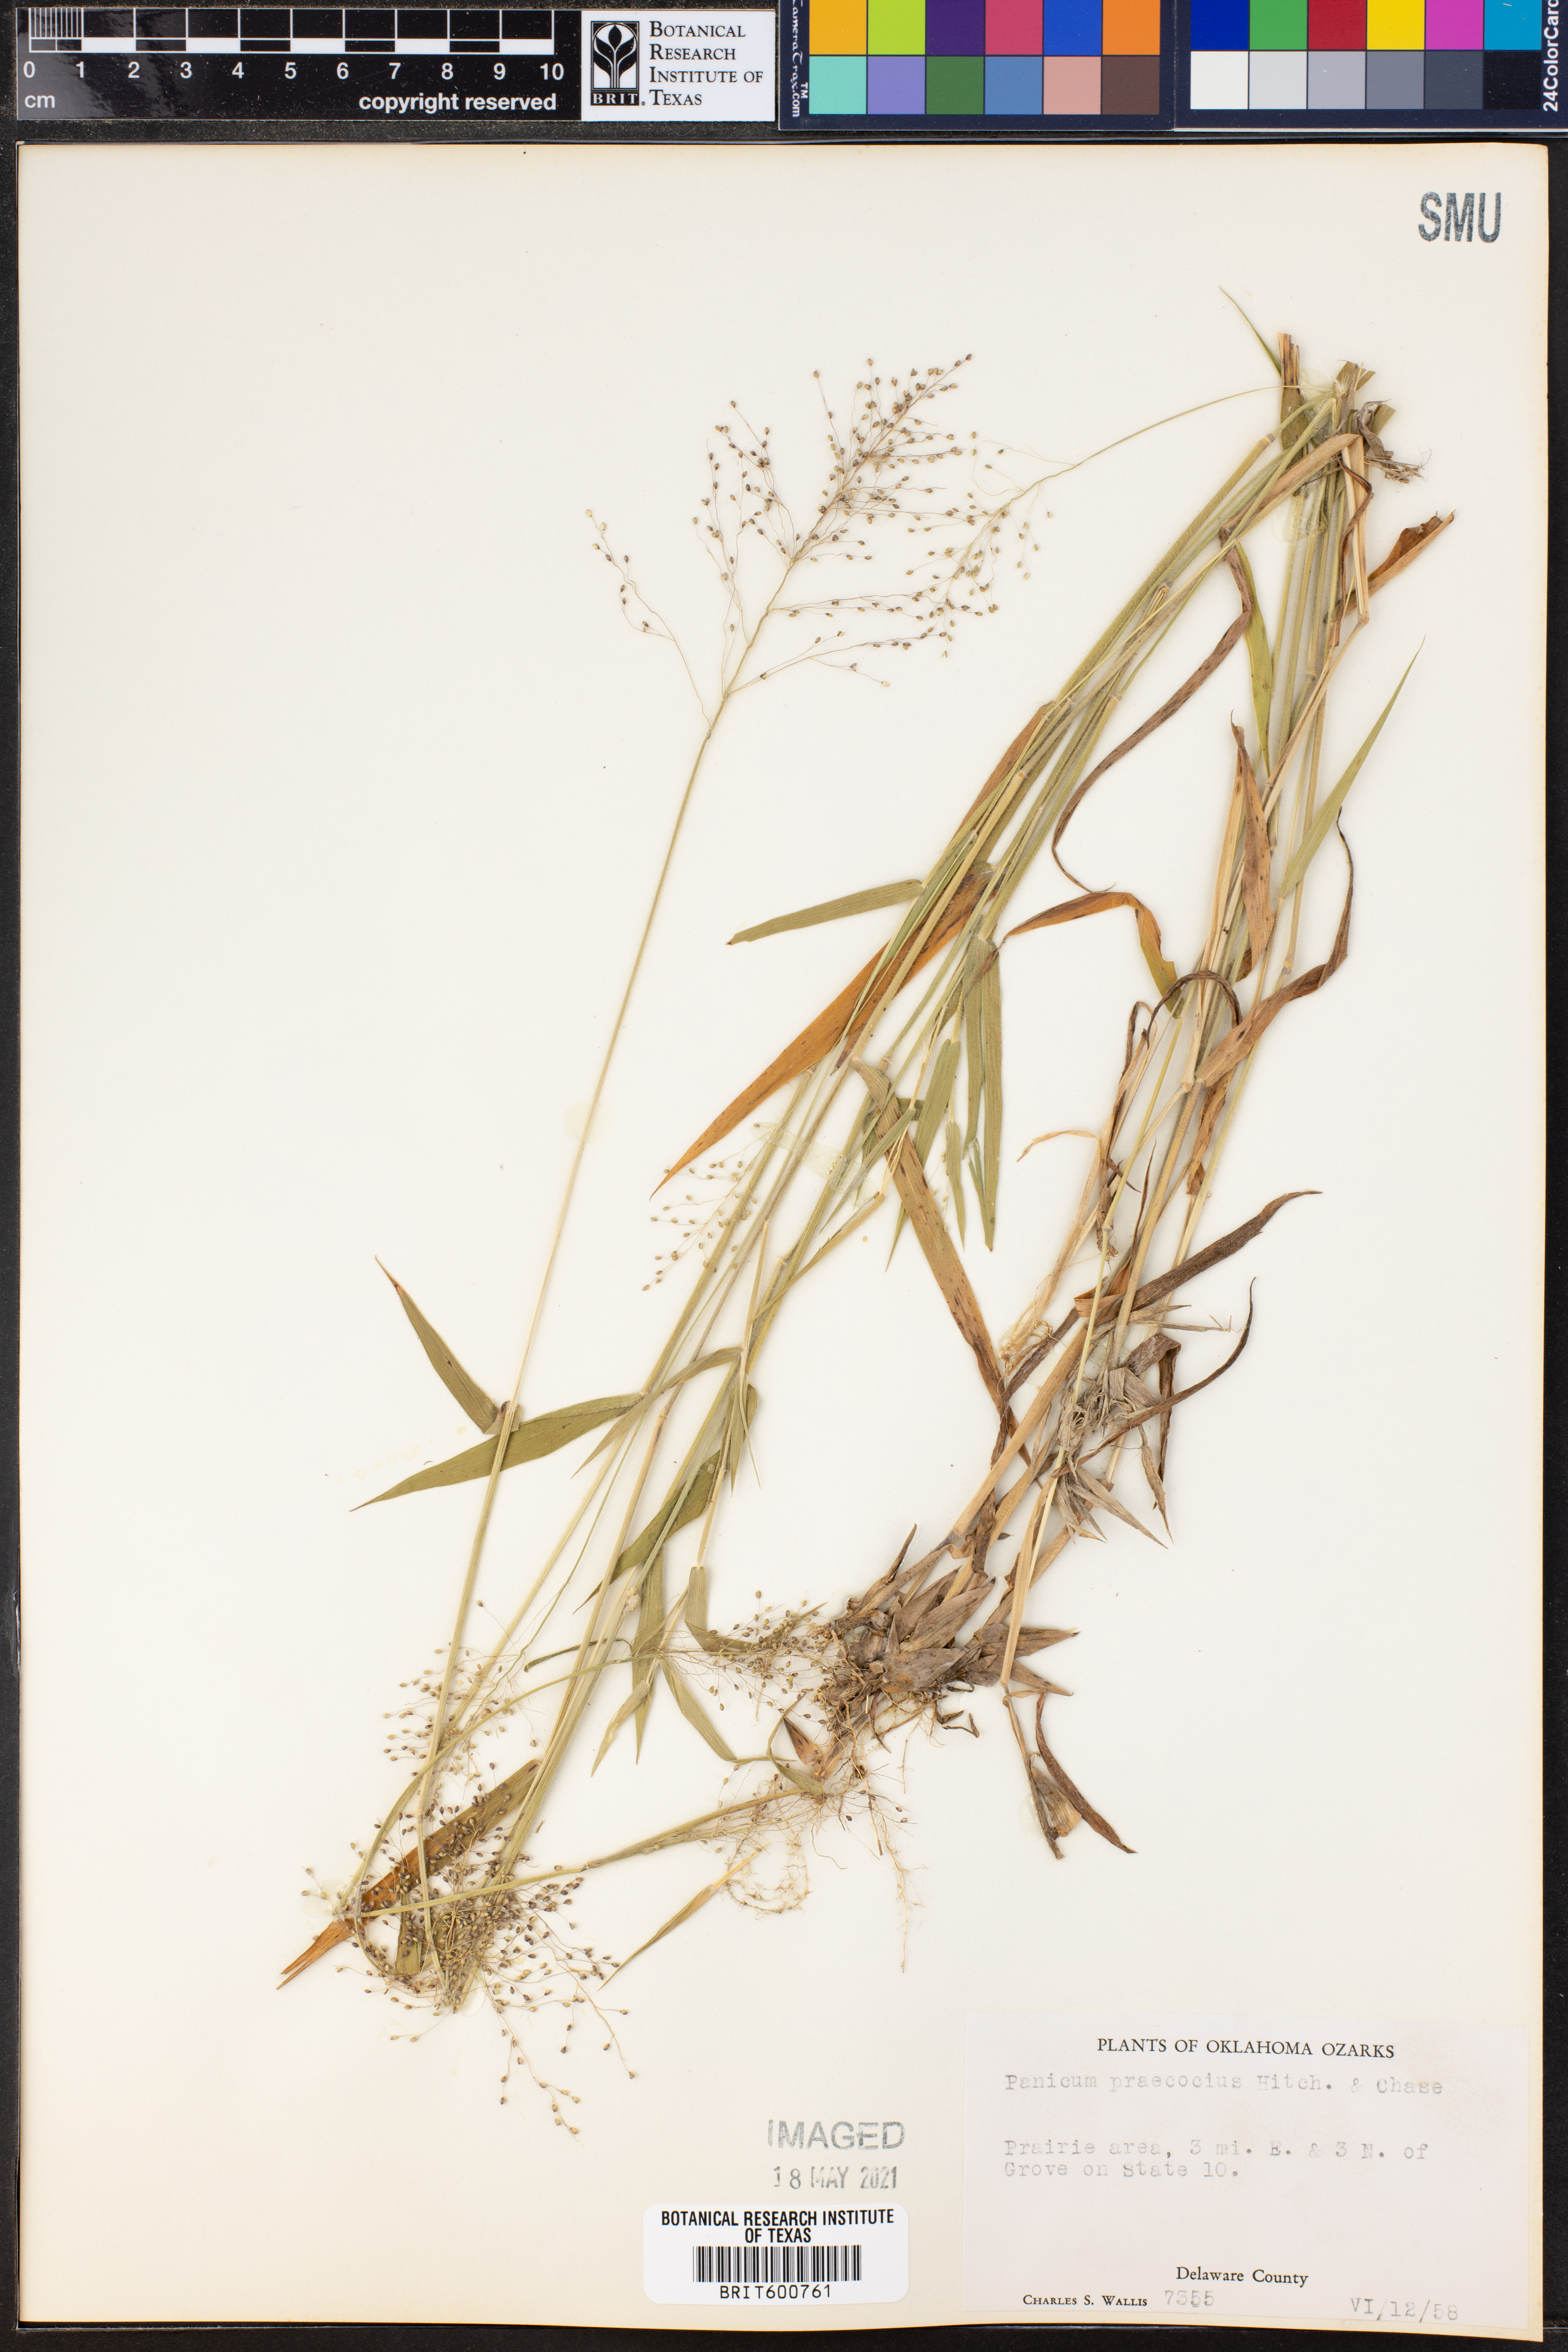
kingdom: Plantae
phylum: Tracheophyta
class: Liliopsida
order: Poales
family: Poaceae
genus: Dichanthelium
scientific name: Dichanthelium praecocius
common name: Early-branching panicgrass
